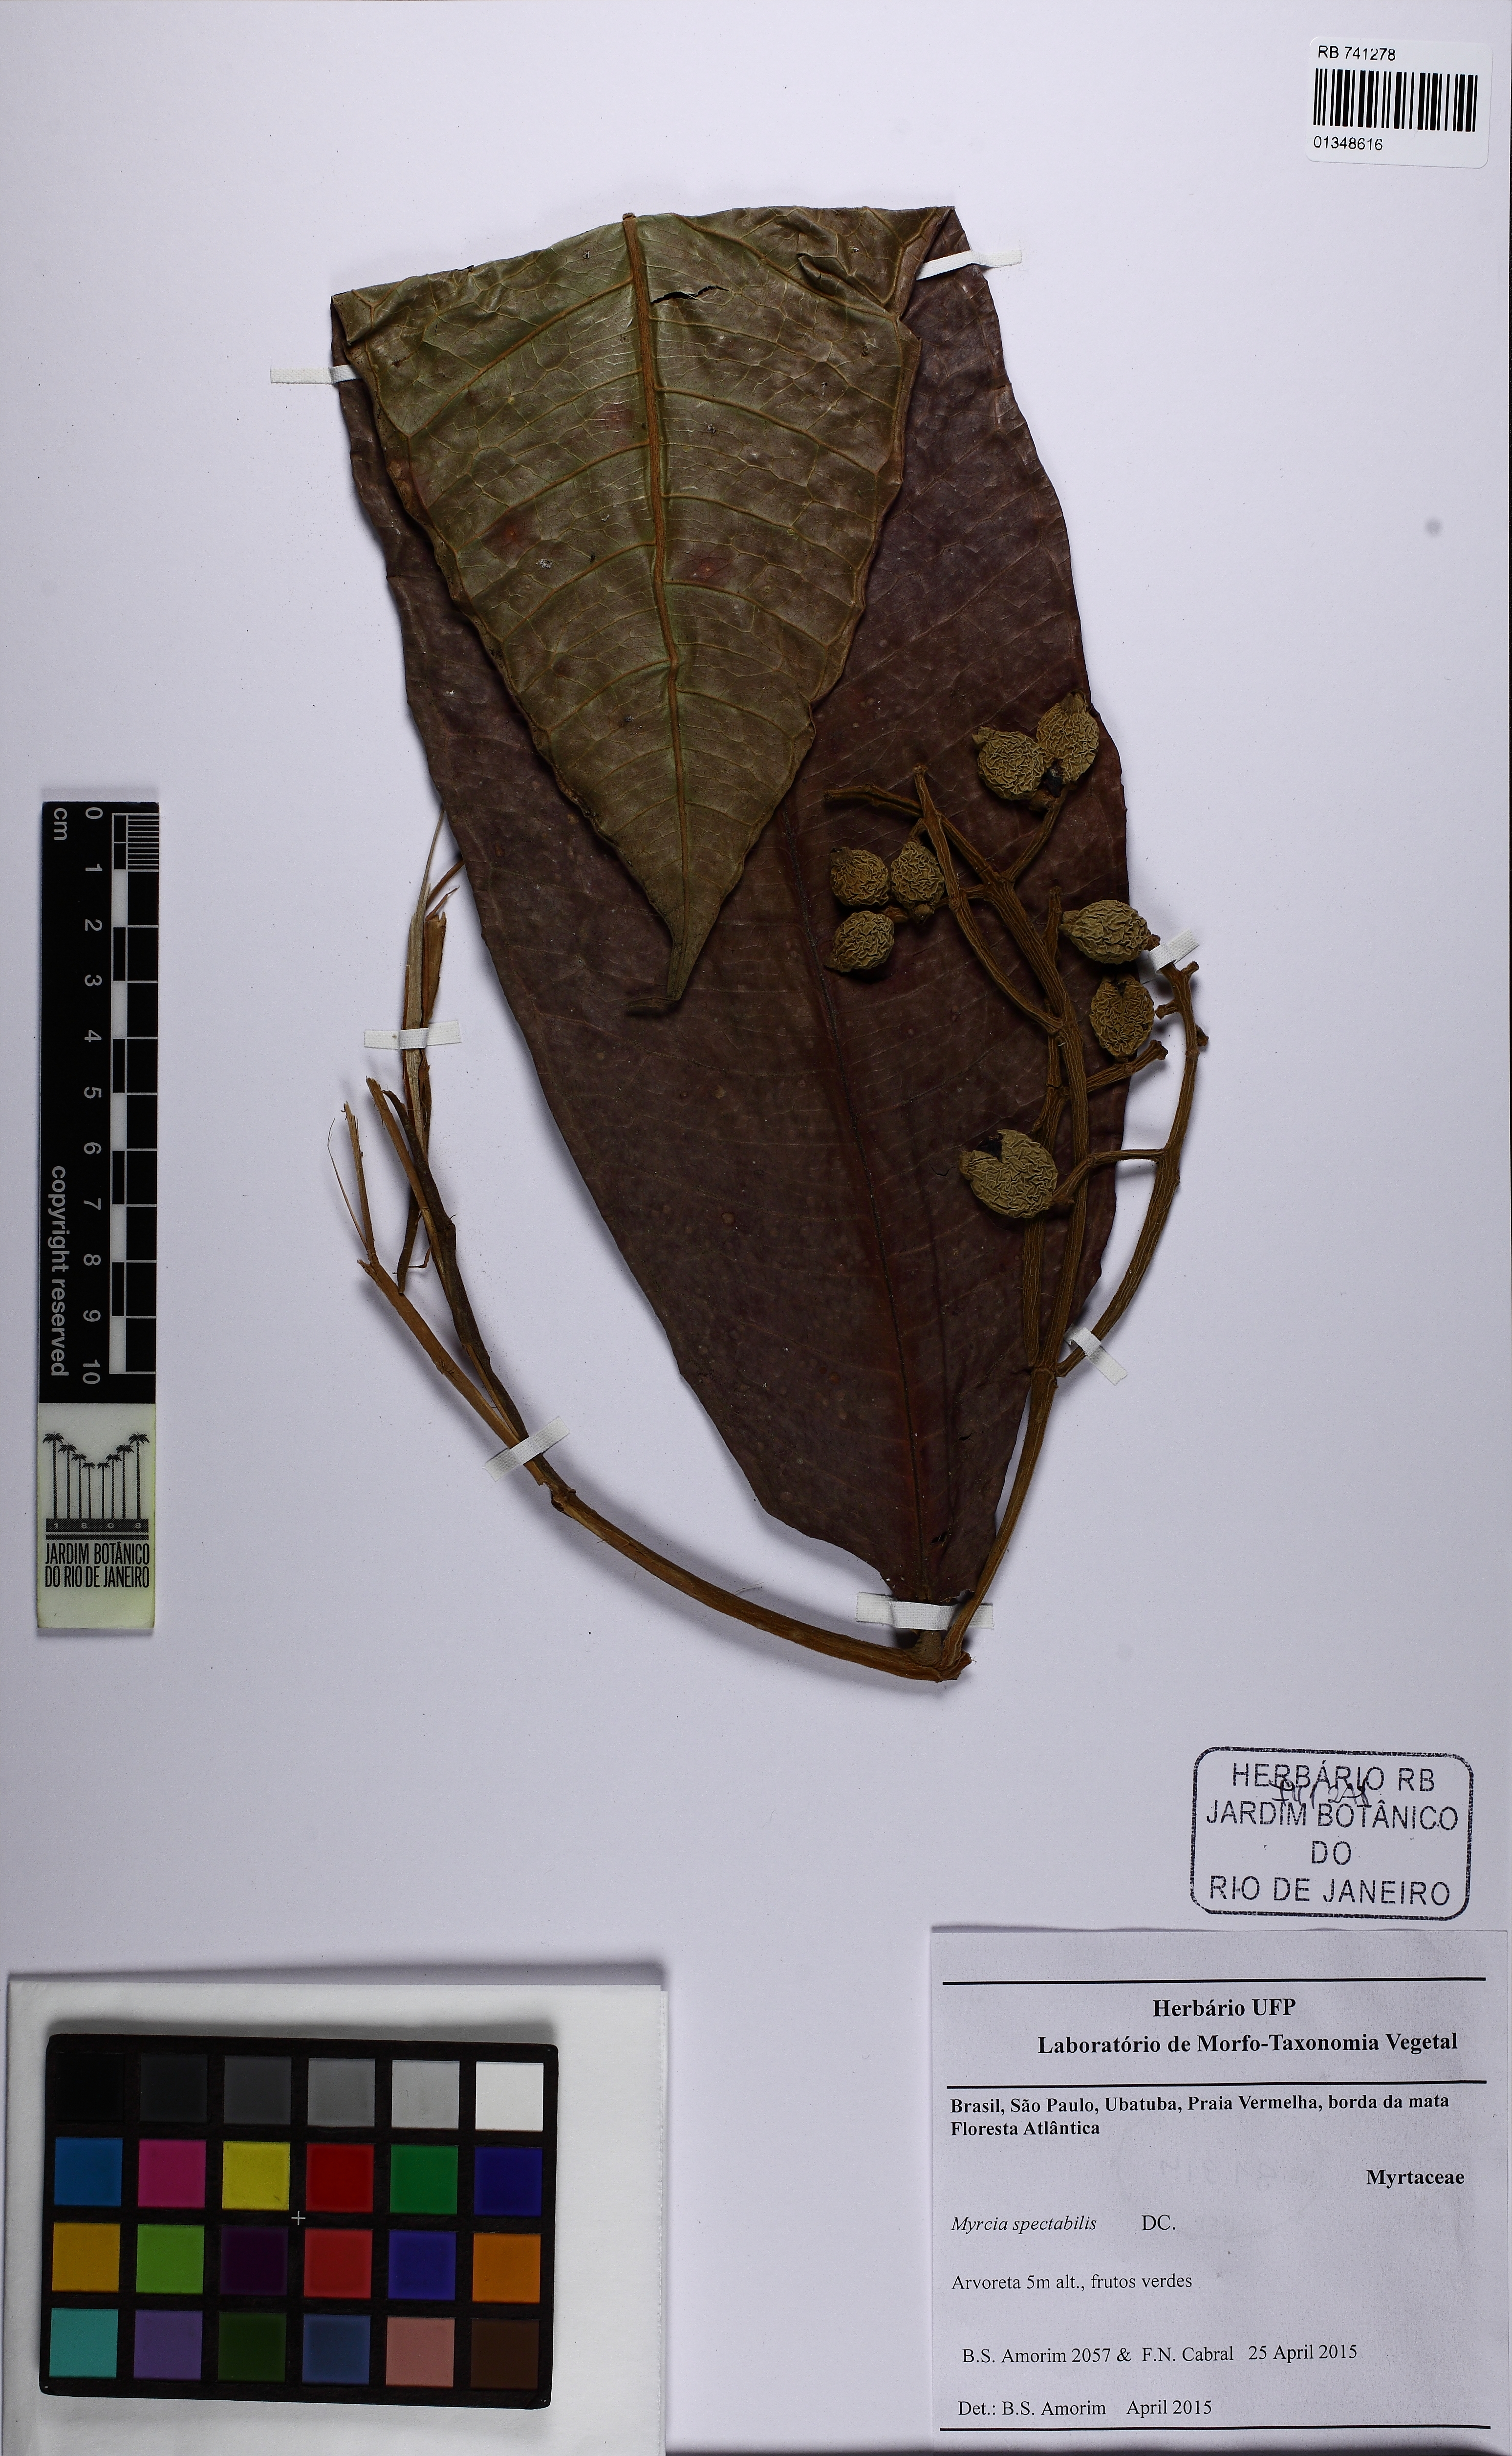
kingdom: Plantae
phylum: Tracheophyta
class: Magnoliopsida
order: Myrtales
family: Myrtaceae
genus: Myrcia
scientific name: Myrcia spectabilis
